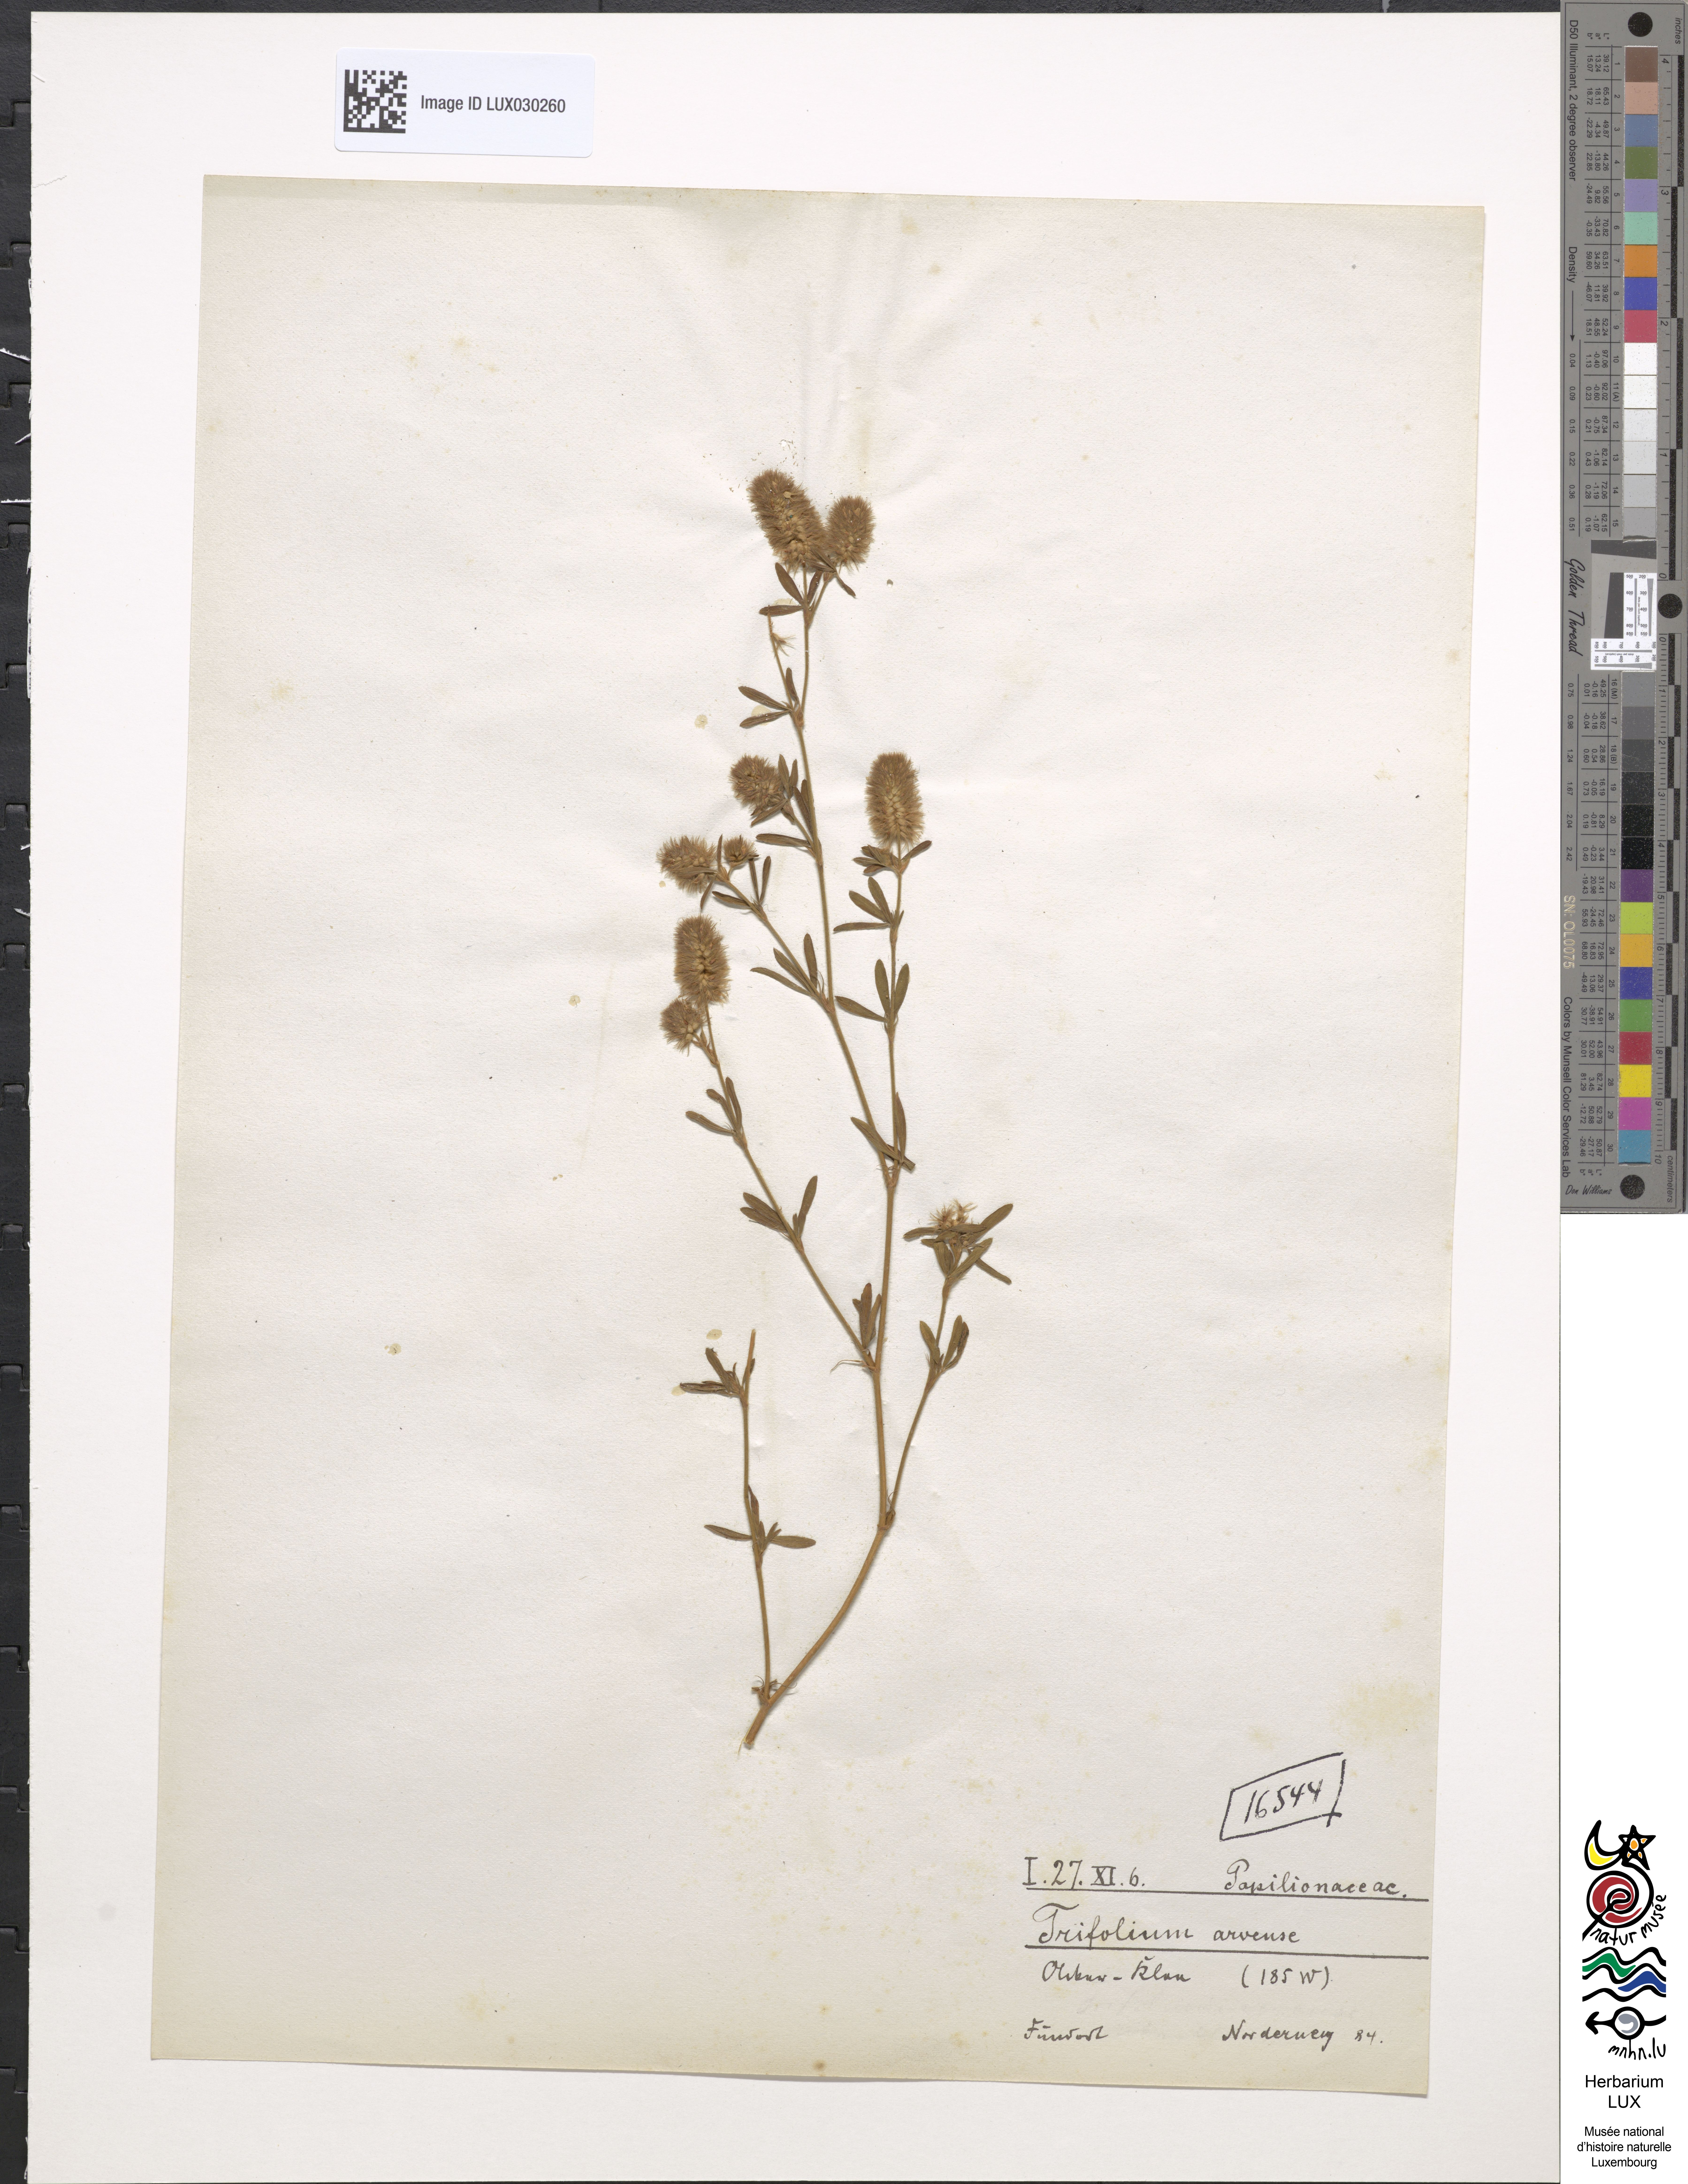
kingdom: Plantae
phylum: Tracheophyta
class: Magnoliopsida
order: Fabales
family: Fabaceae
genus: Trifolium
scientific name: Trifolium arvense
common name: Hare's-foot clover
